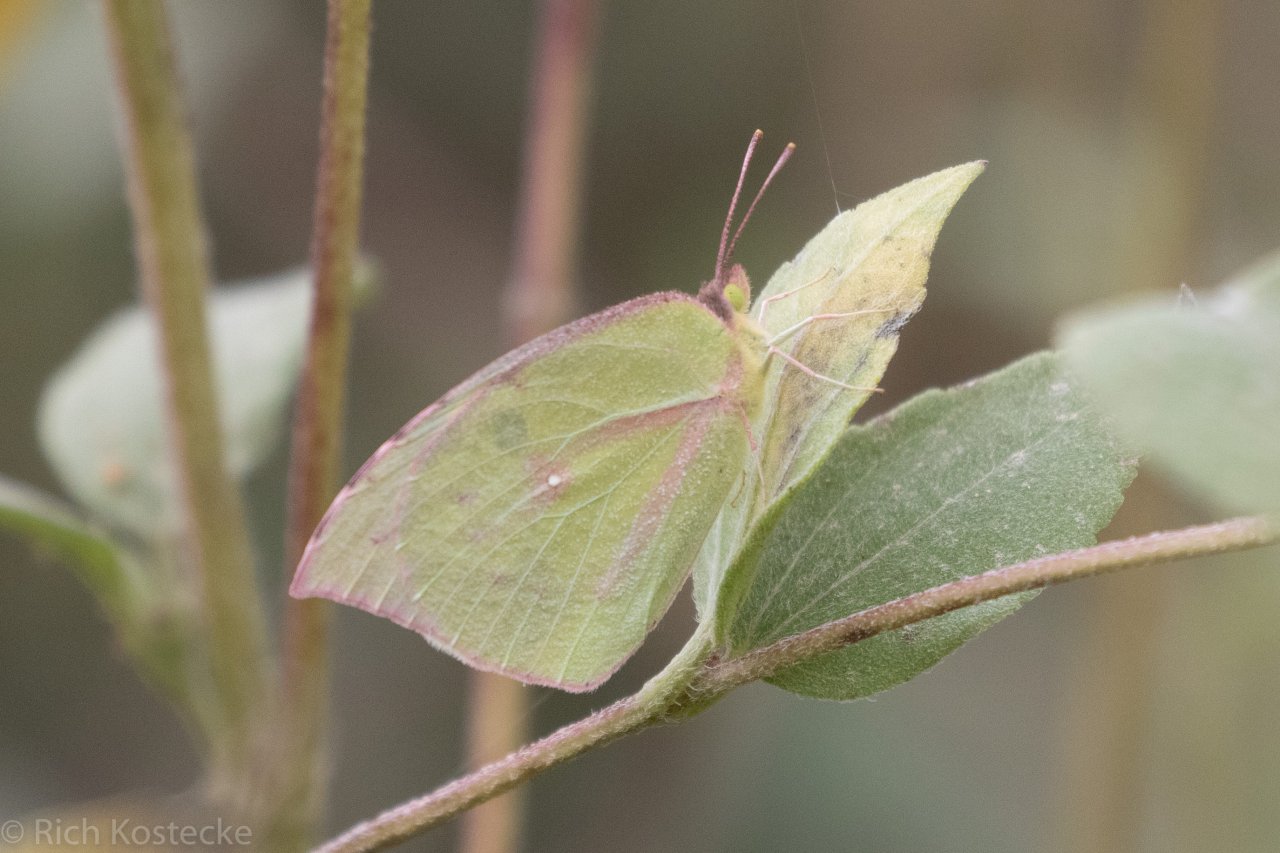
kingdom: Animalia
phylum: Arthropoda
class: Insecta
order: Lepidoptera
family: Pieridae
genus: Zerene
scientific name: Zerene cesonia
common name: Southern Dogface
